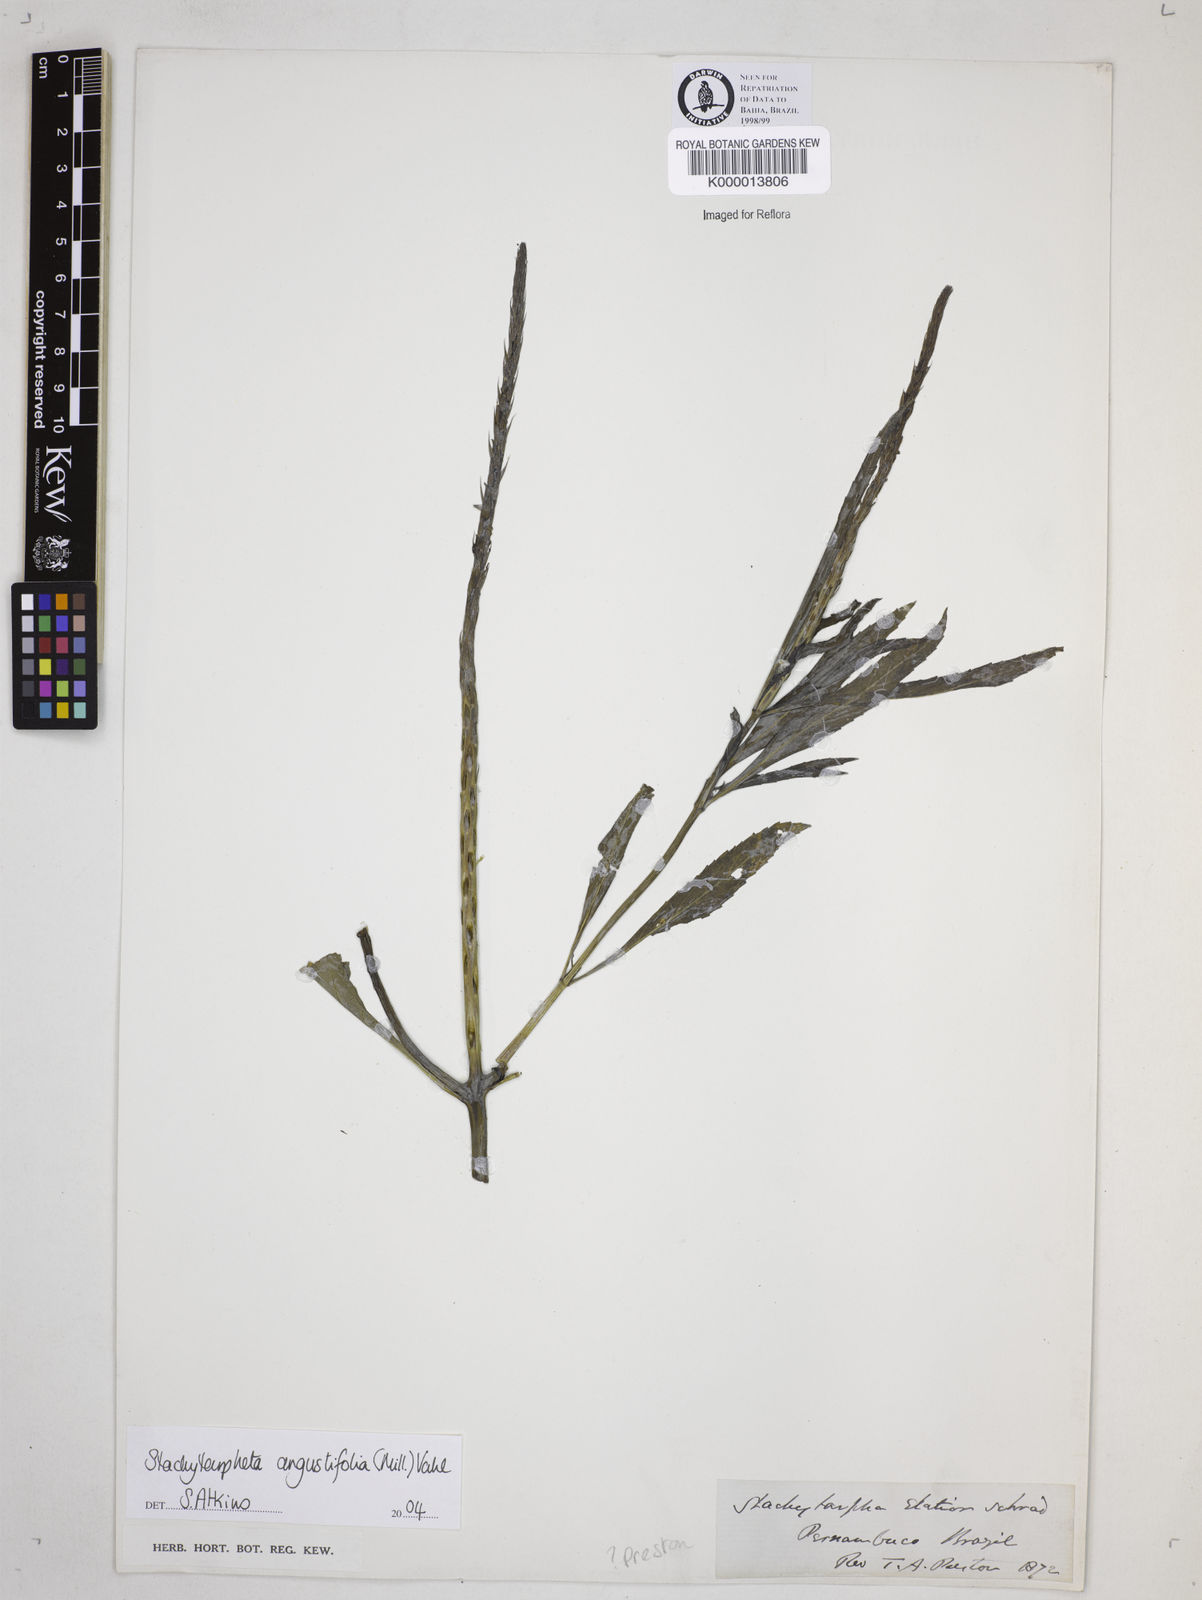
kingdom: Plantae
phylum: Tracheophyta
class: Magnoliopsida
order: Lamiales
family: Verbenaceae
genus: Stachytarpheta
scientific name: Stachytarpheta indica
